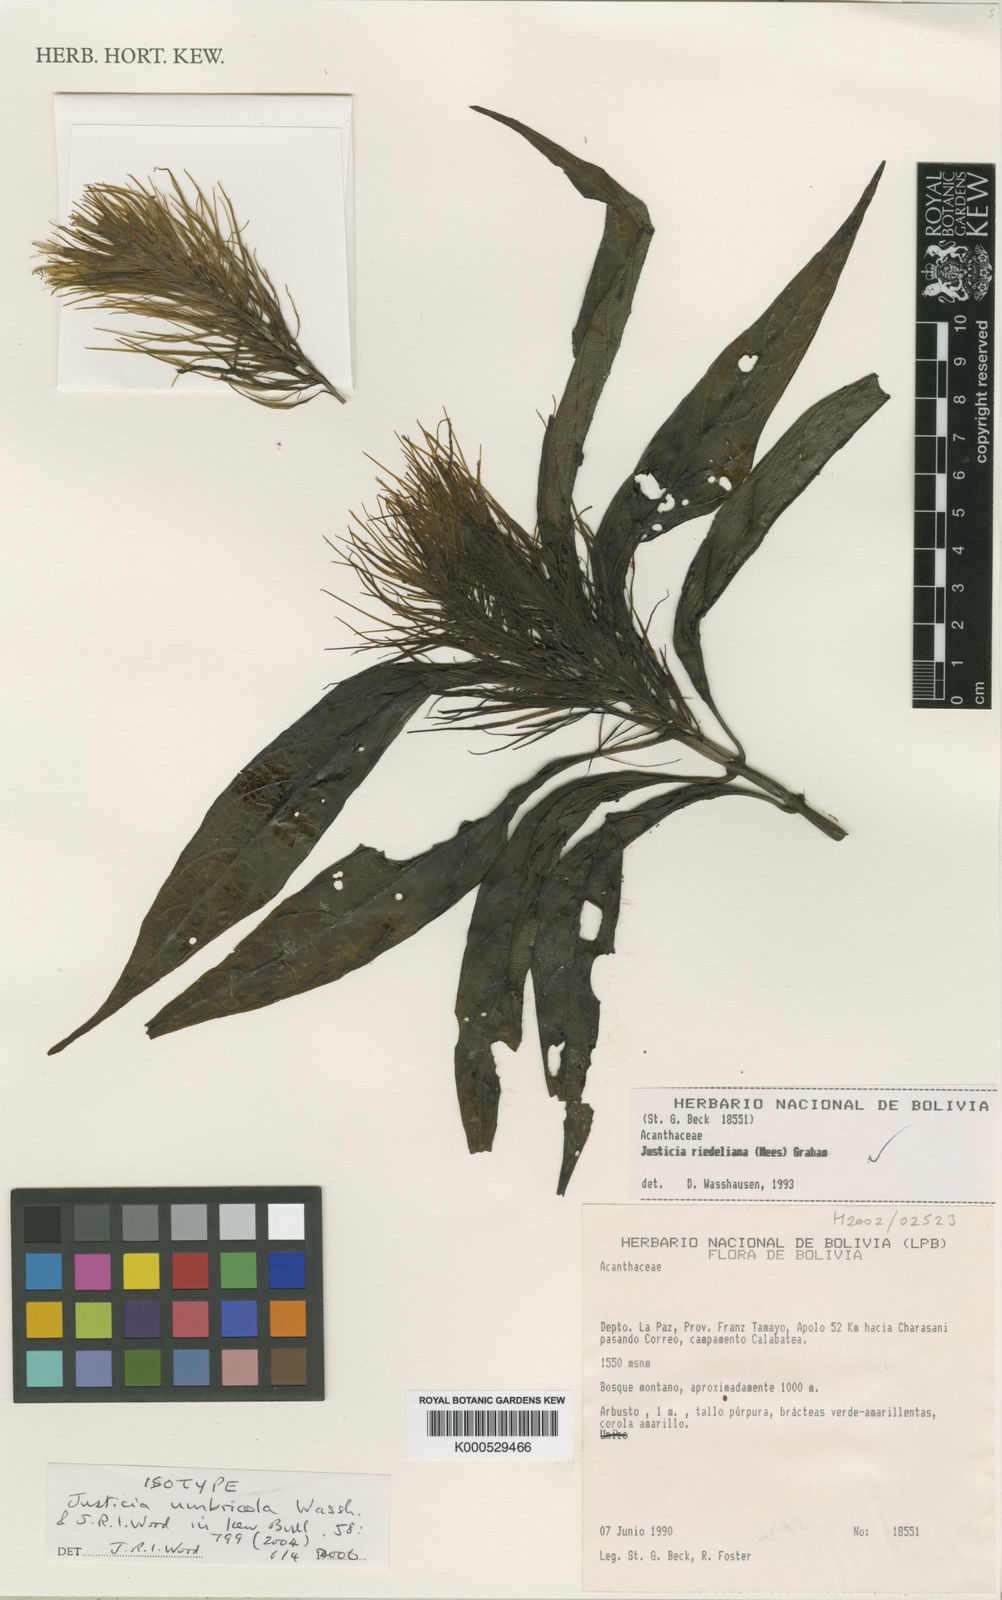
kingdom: Plantae
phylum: Tracheophyta
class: Magnoliopsida
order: Lamiales
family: Acanthaceae
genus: Justicia
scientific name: Justicia umbricola
